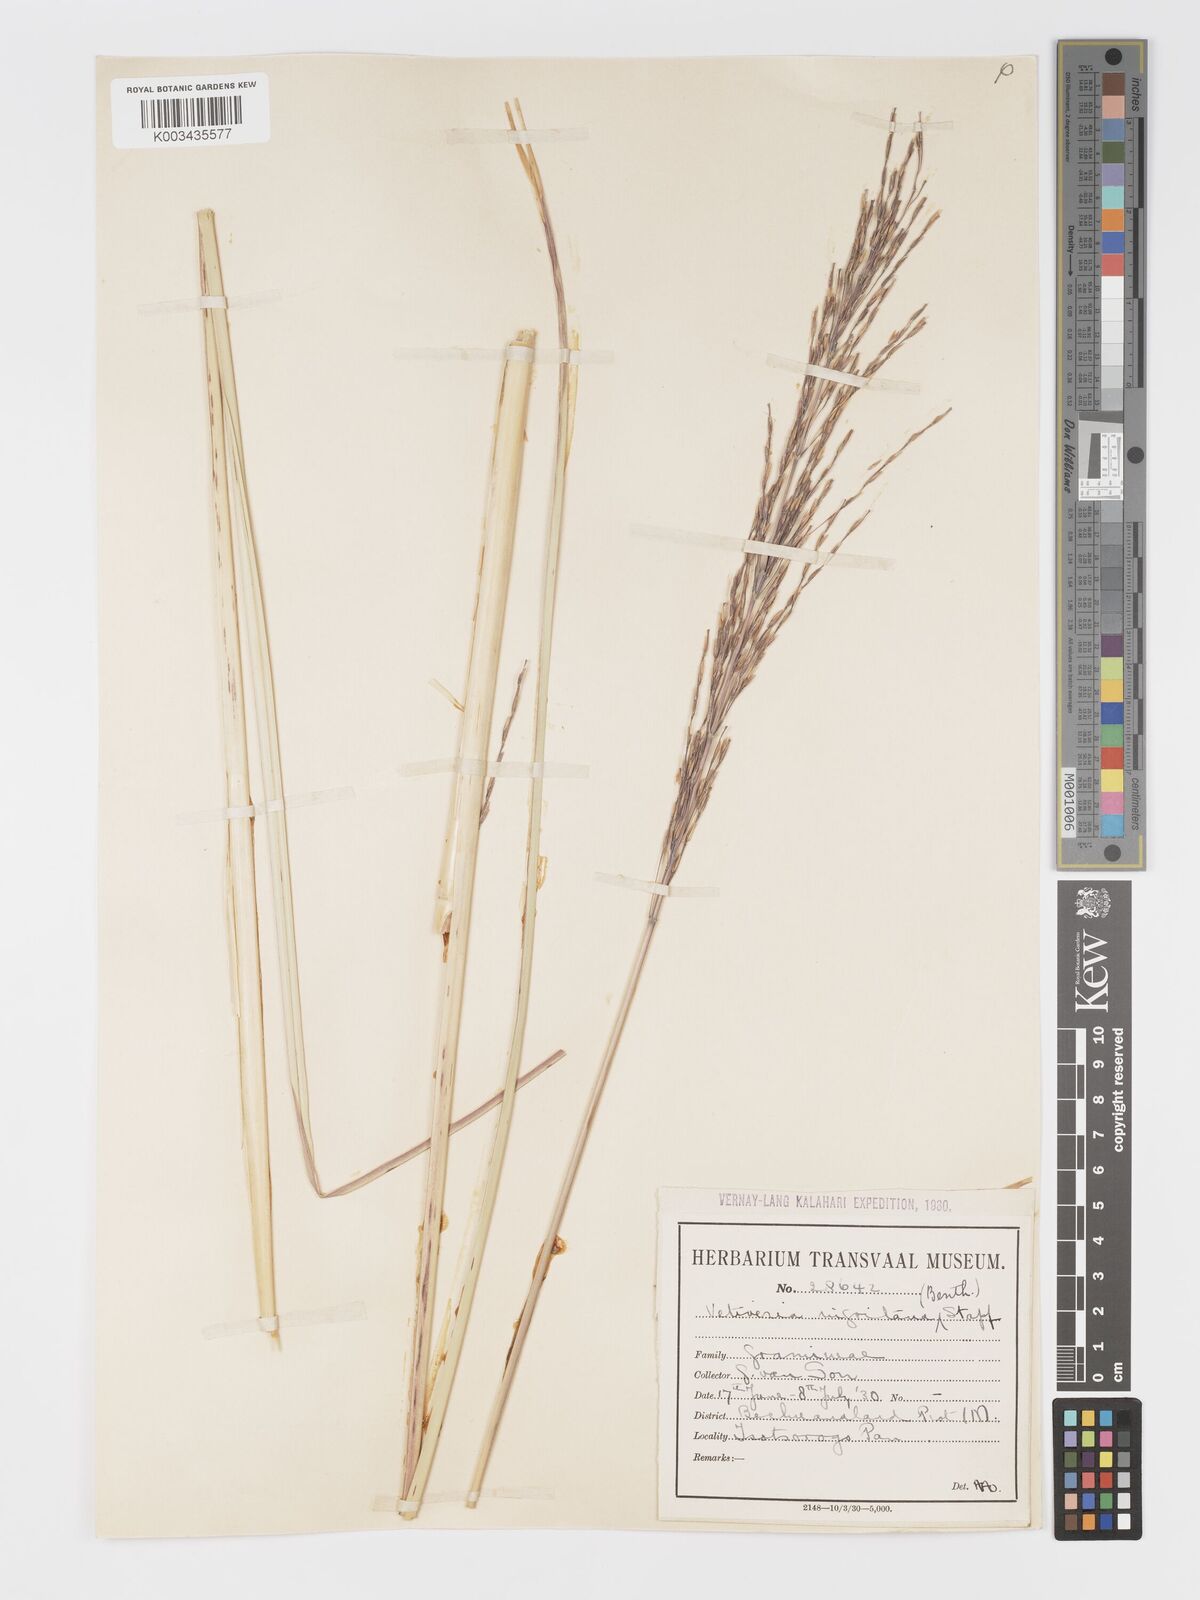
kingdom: Plantae
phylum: Tracheophyta
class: Liliopsida
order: Poales
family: Poaceae
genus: Chrysopogon
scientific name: Chrysopogon nigritanus
